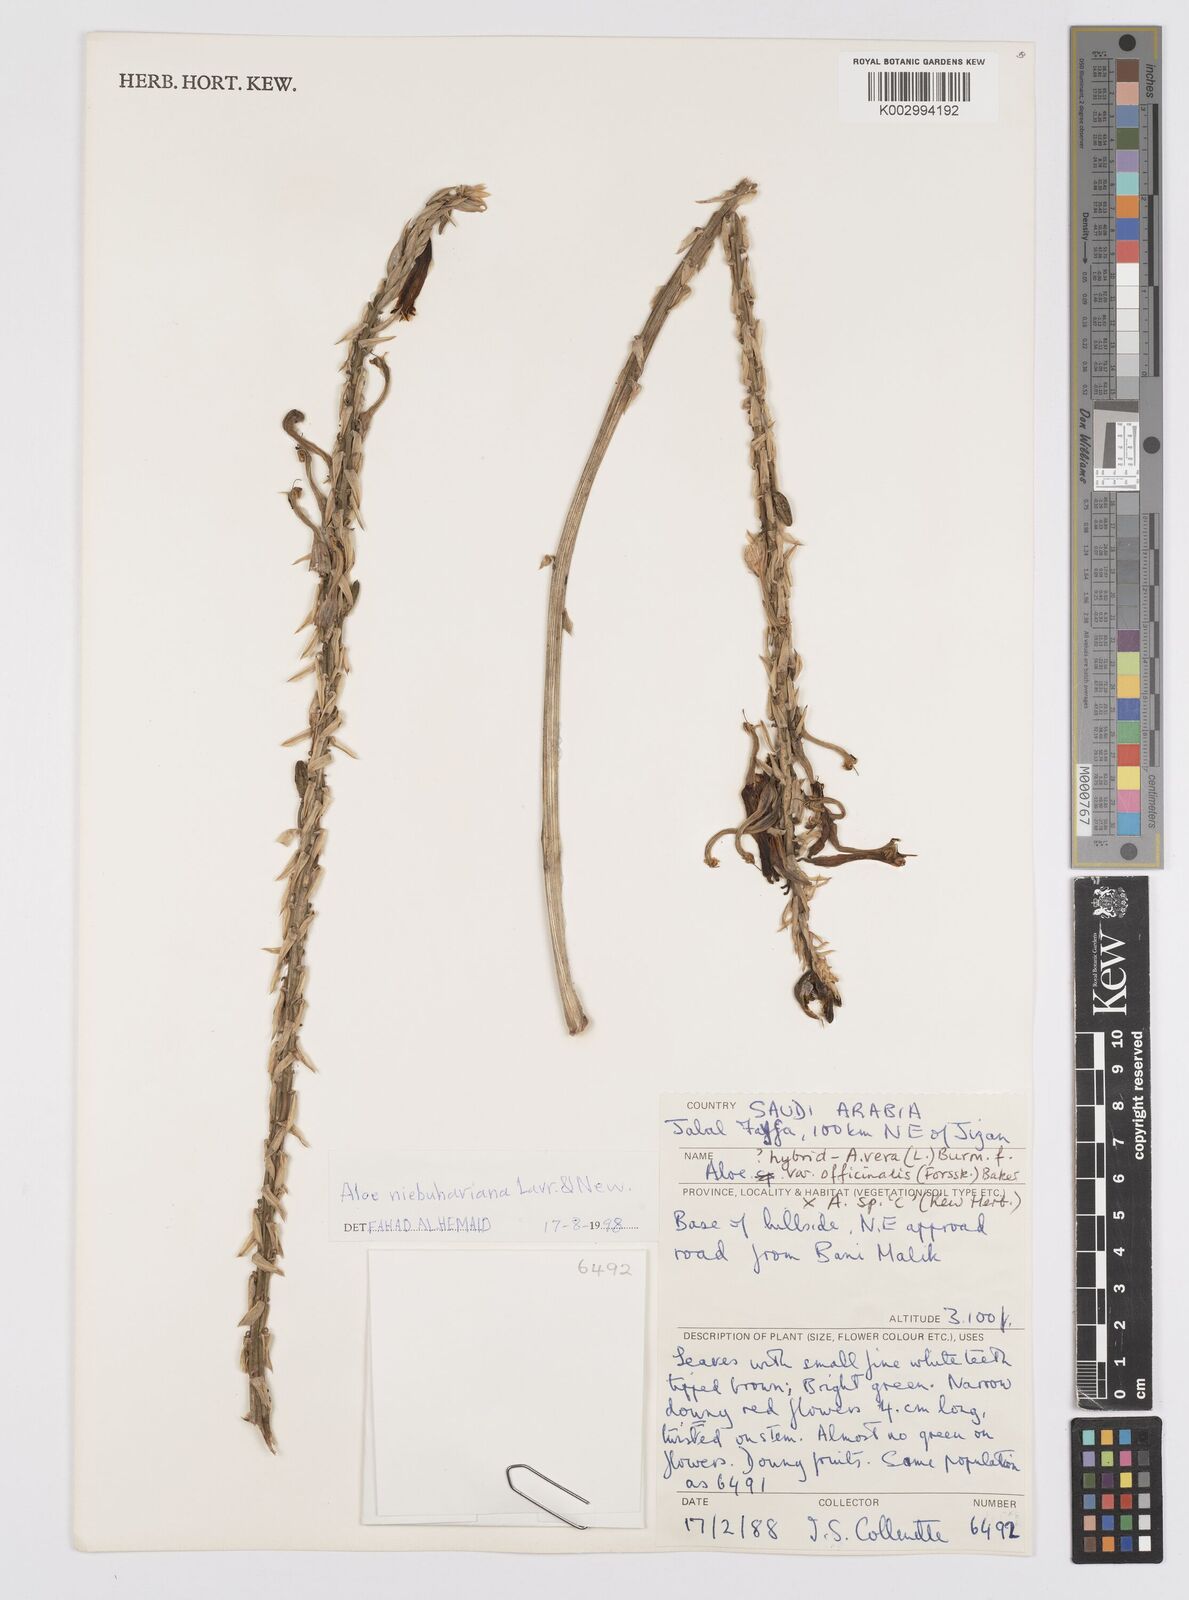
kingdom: Plantae
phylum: Tracheophyta
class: Liliopsida
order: Asparagales
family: Asphodelaceae
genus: Aloe
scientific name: Aloe niebuhriana
